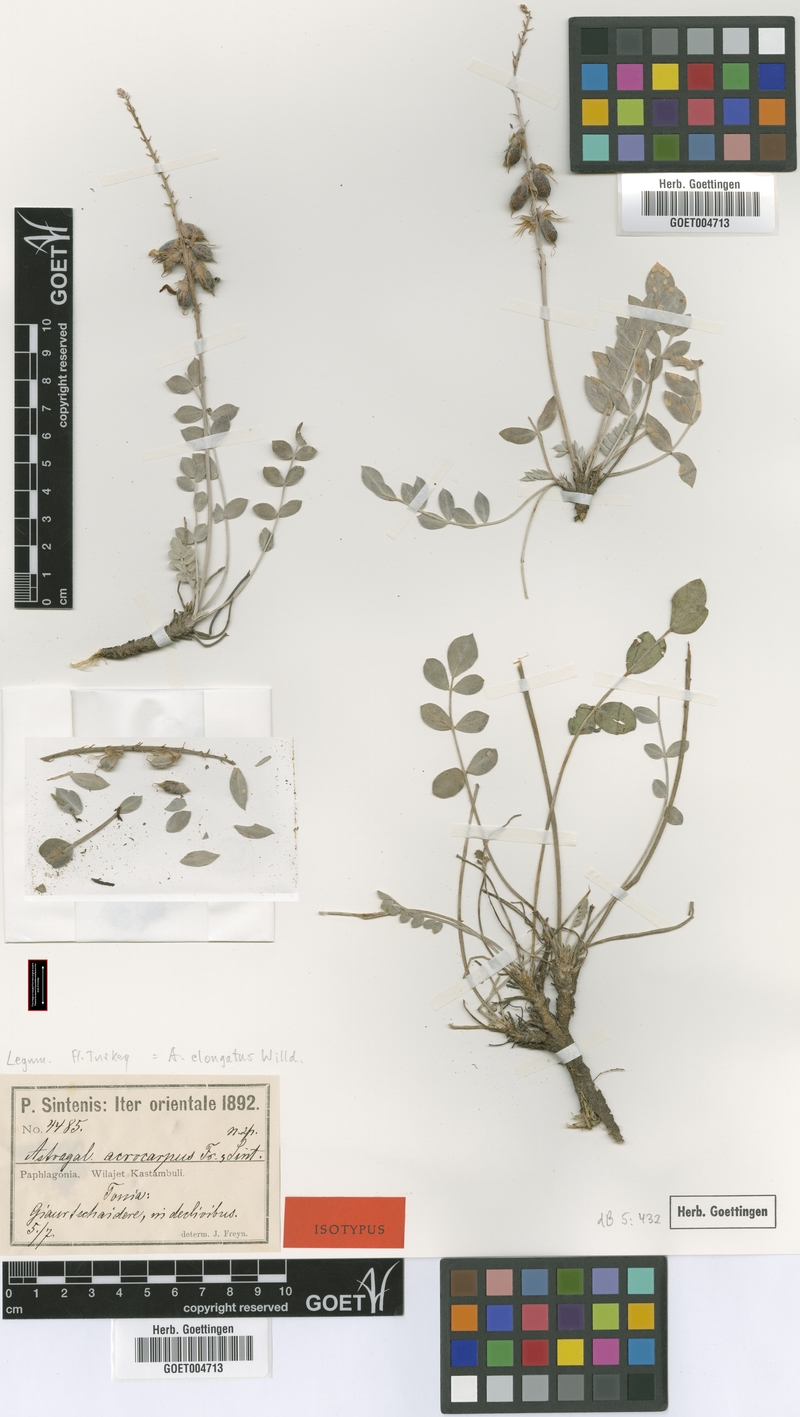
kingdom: Plantae
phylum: Tracheophyta
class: Magnoliopsida
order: Fabales
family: Fabaceae
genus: Astragalus
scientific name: Astragalus elongatus
